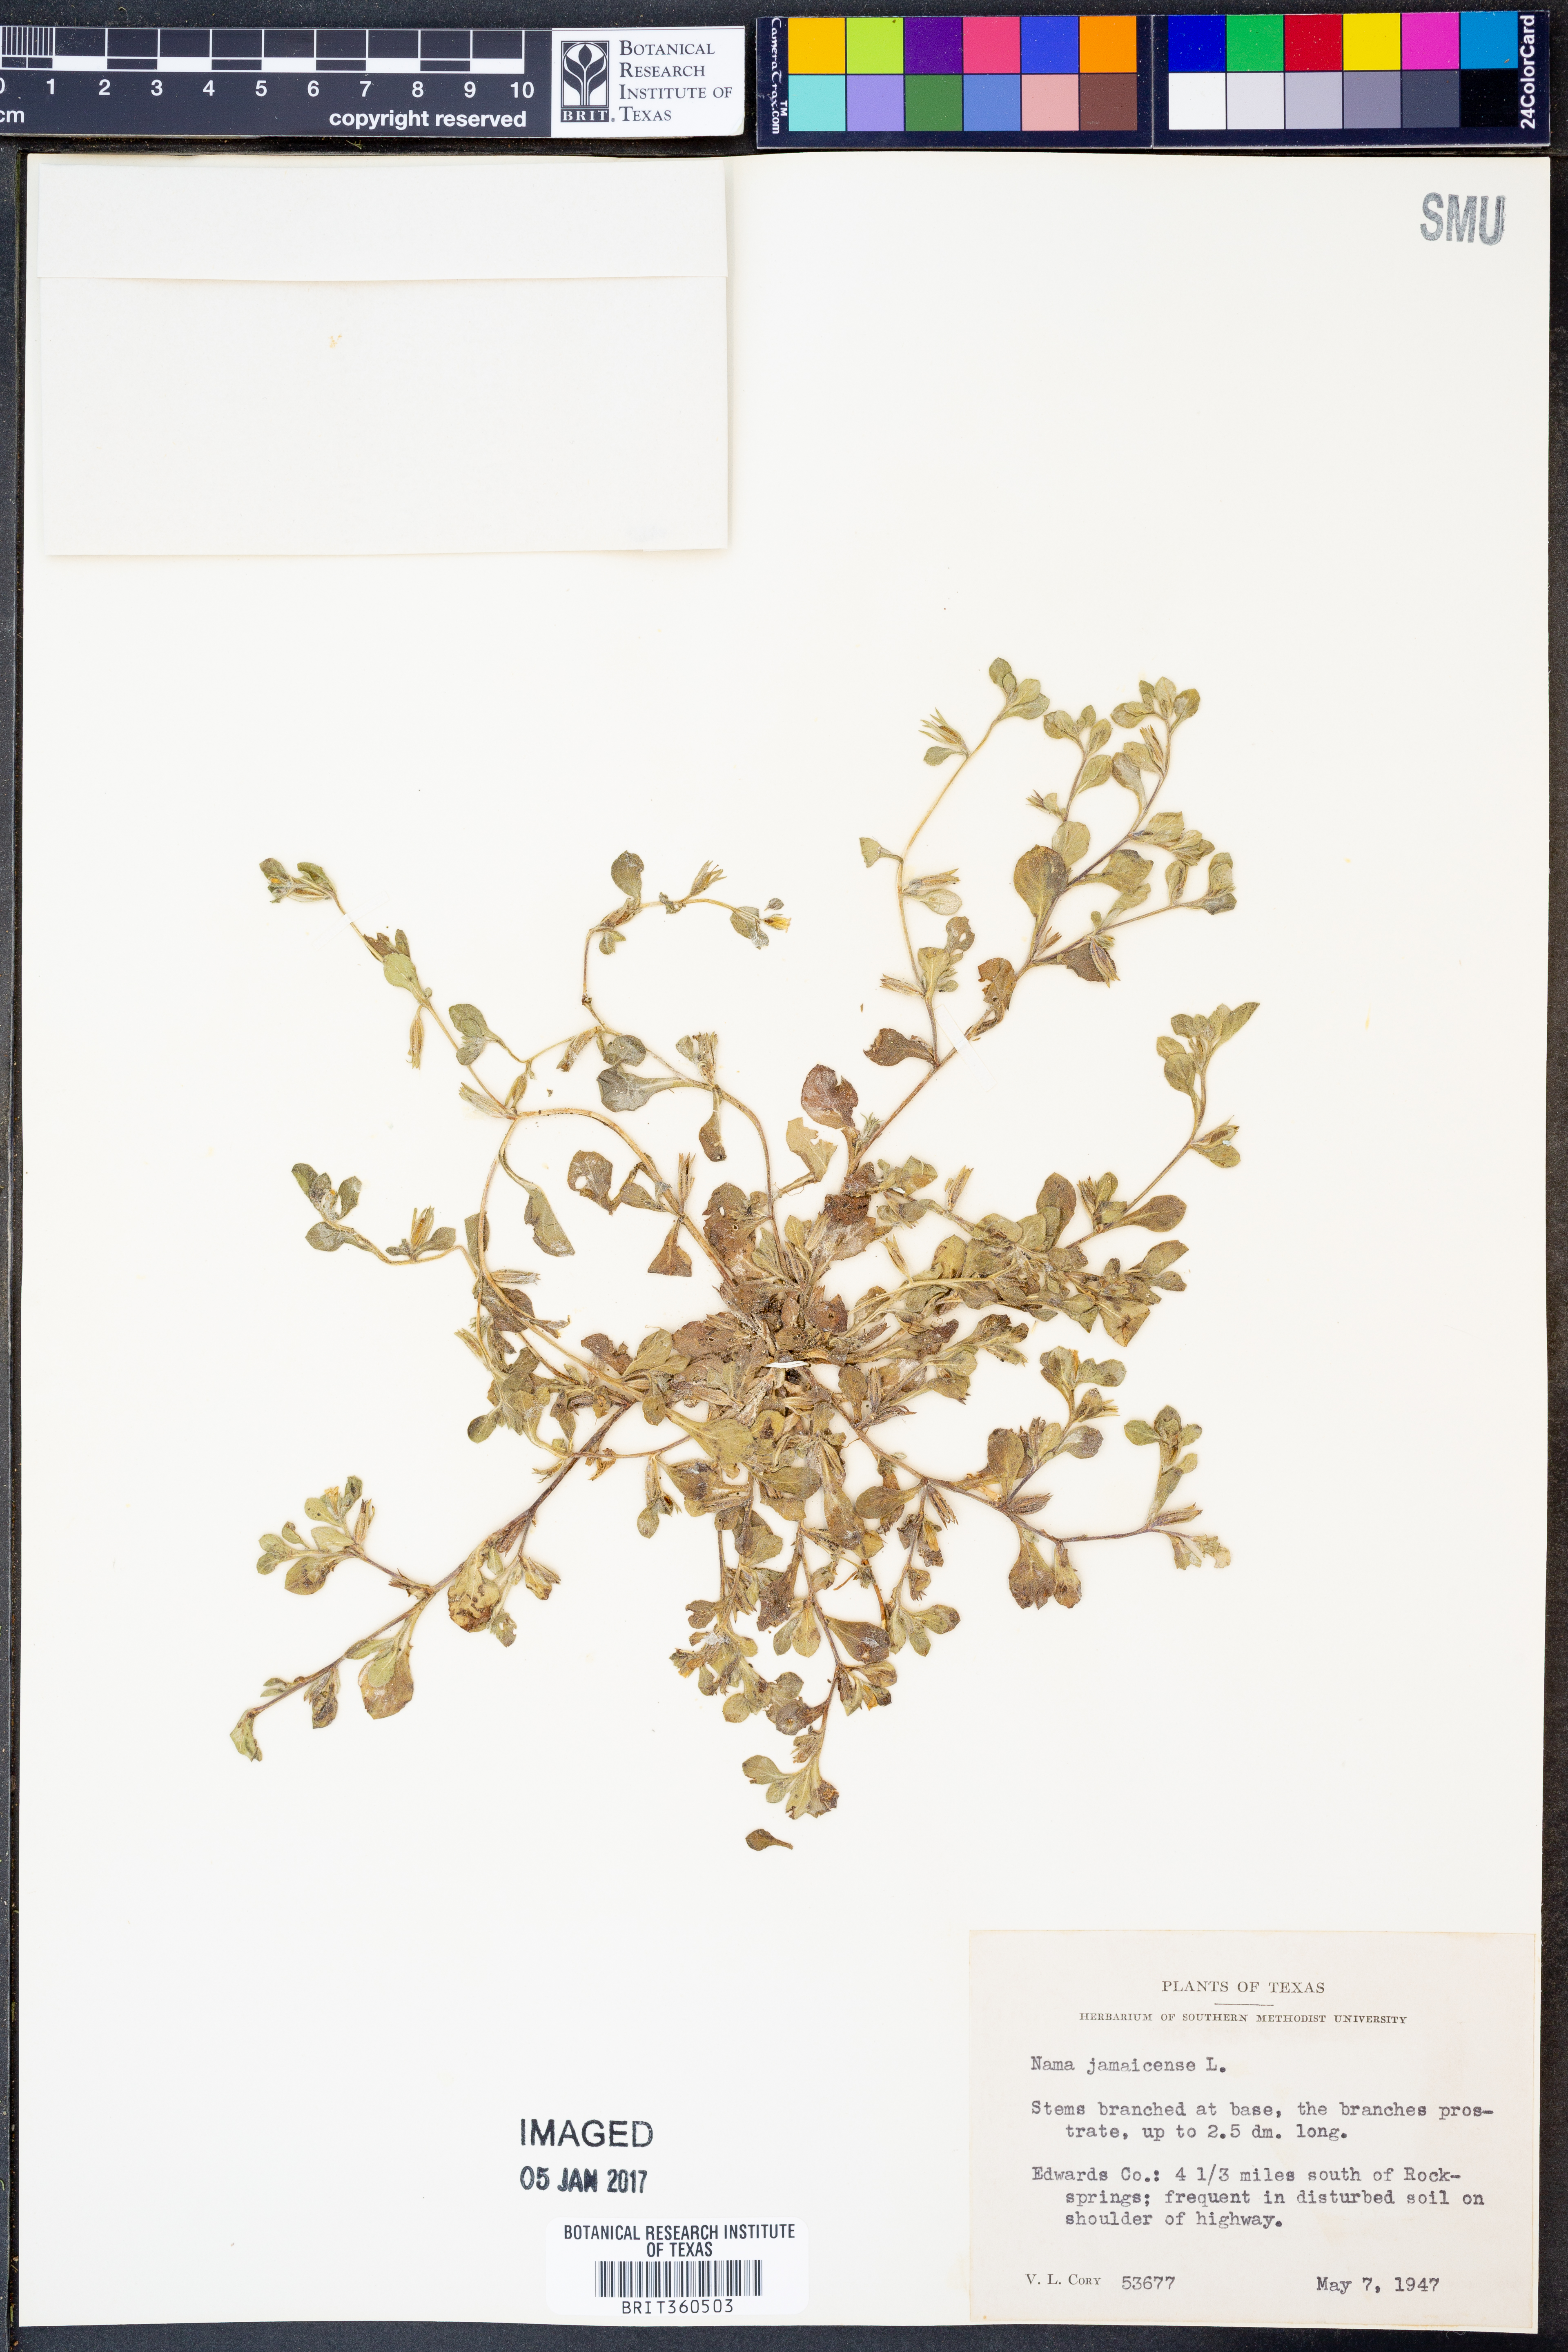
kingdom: Plantae
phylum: Tracheophyta
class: Magnoliopsida
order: Boraginales
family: Namaceae
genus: Nama
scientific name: Nama jamaicense
